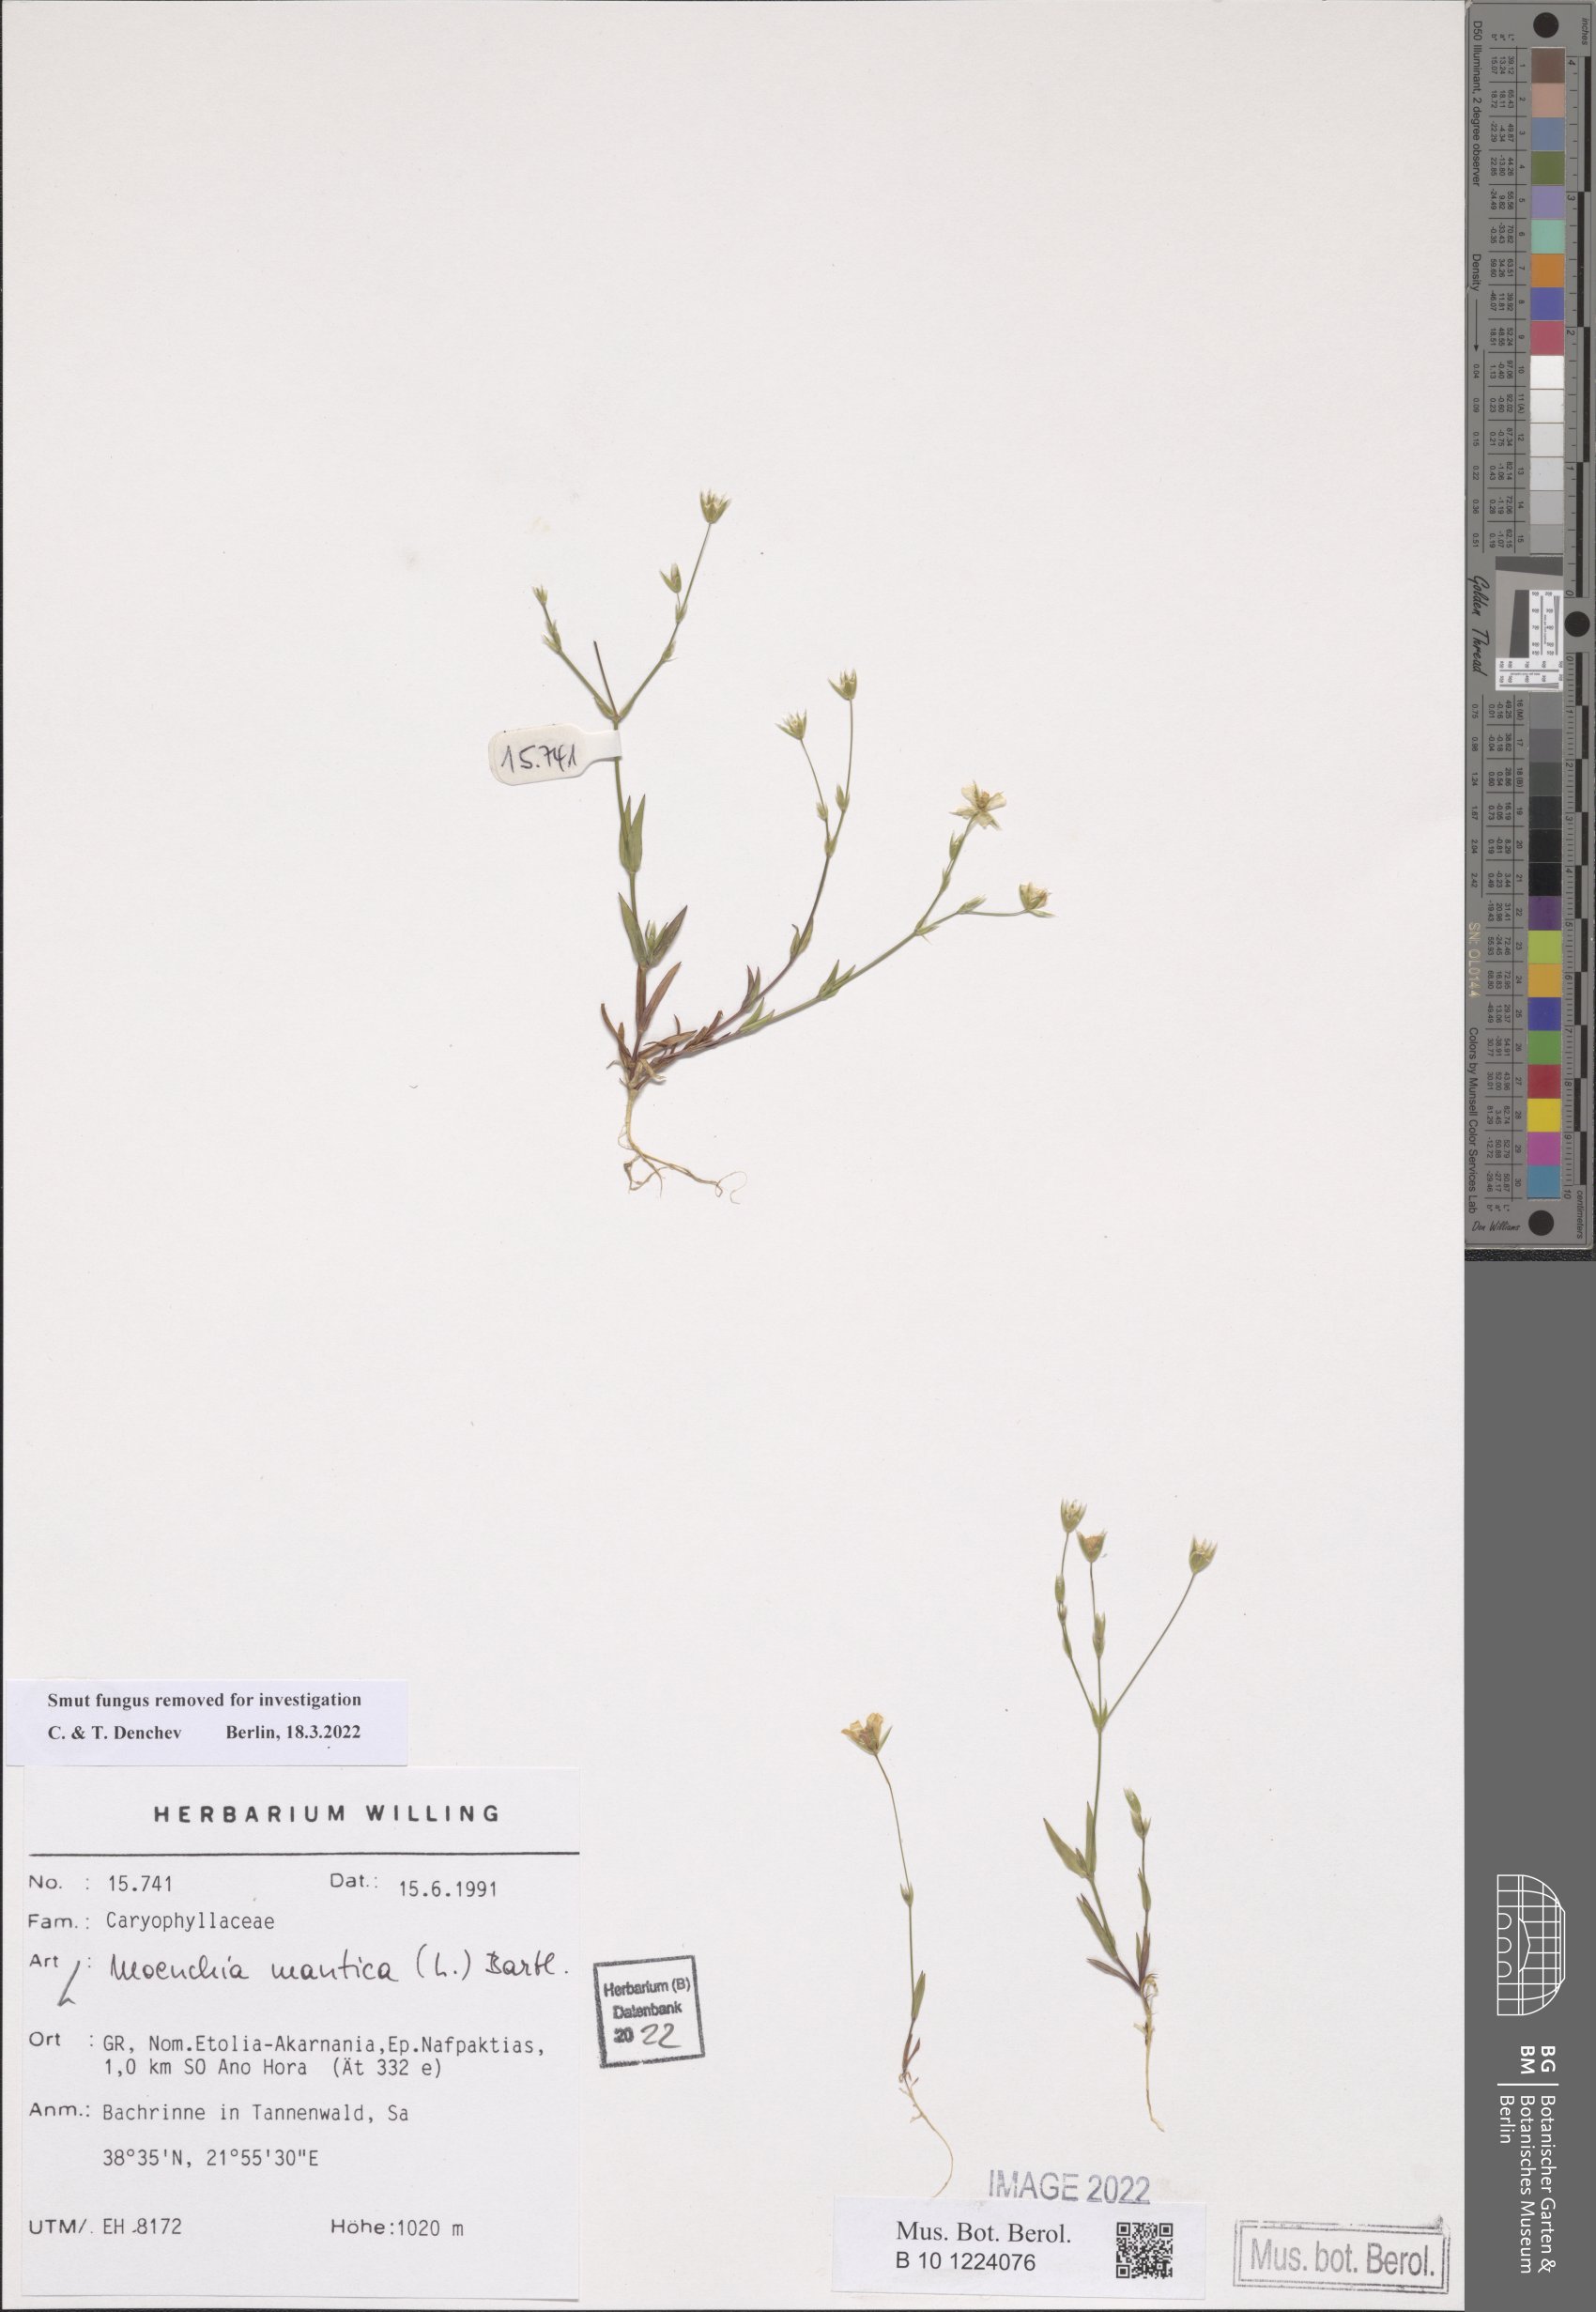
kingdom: Plantae
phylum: Tracheophyta
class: Magnoliopsida
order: Caryophyllales
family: Caryophyllaceae
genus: Moenchia
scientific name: Moenchia mantica
